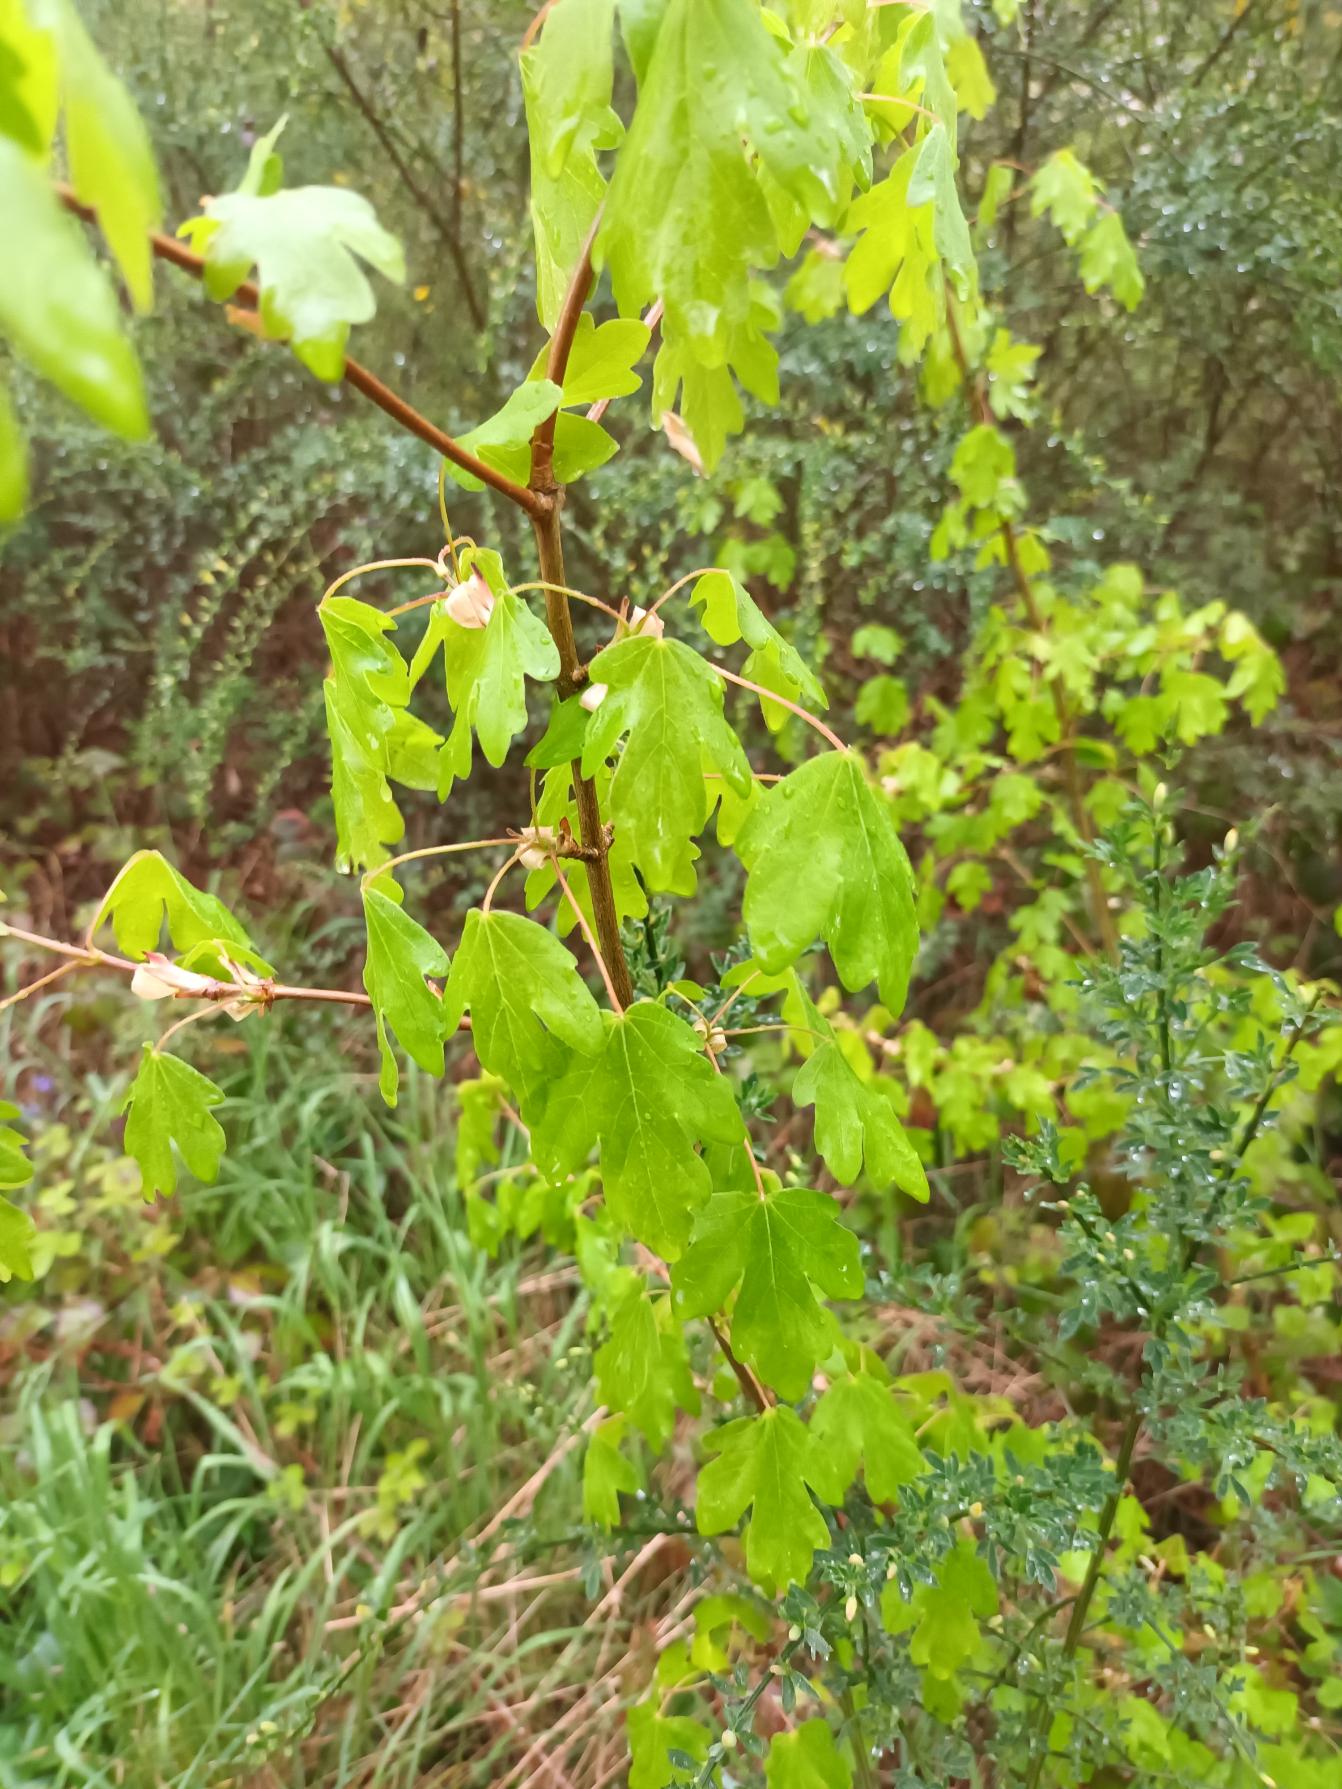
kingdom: Plantae
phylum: Tracheophyta
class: Magnoliopsida
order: Sapindales
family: Sapindaceae
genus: Acer
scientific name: Acer campestre
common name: Navr
